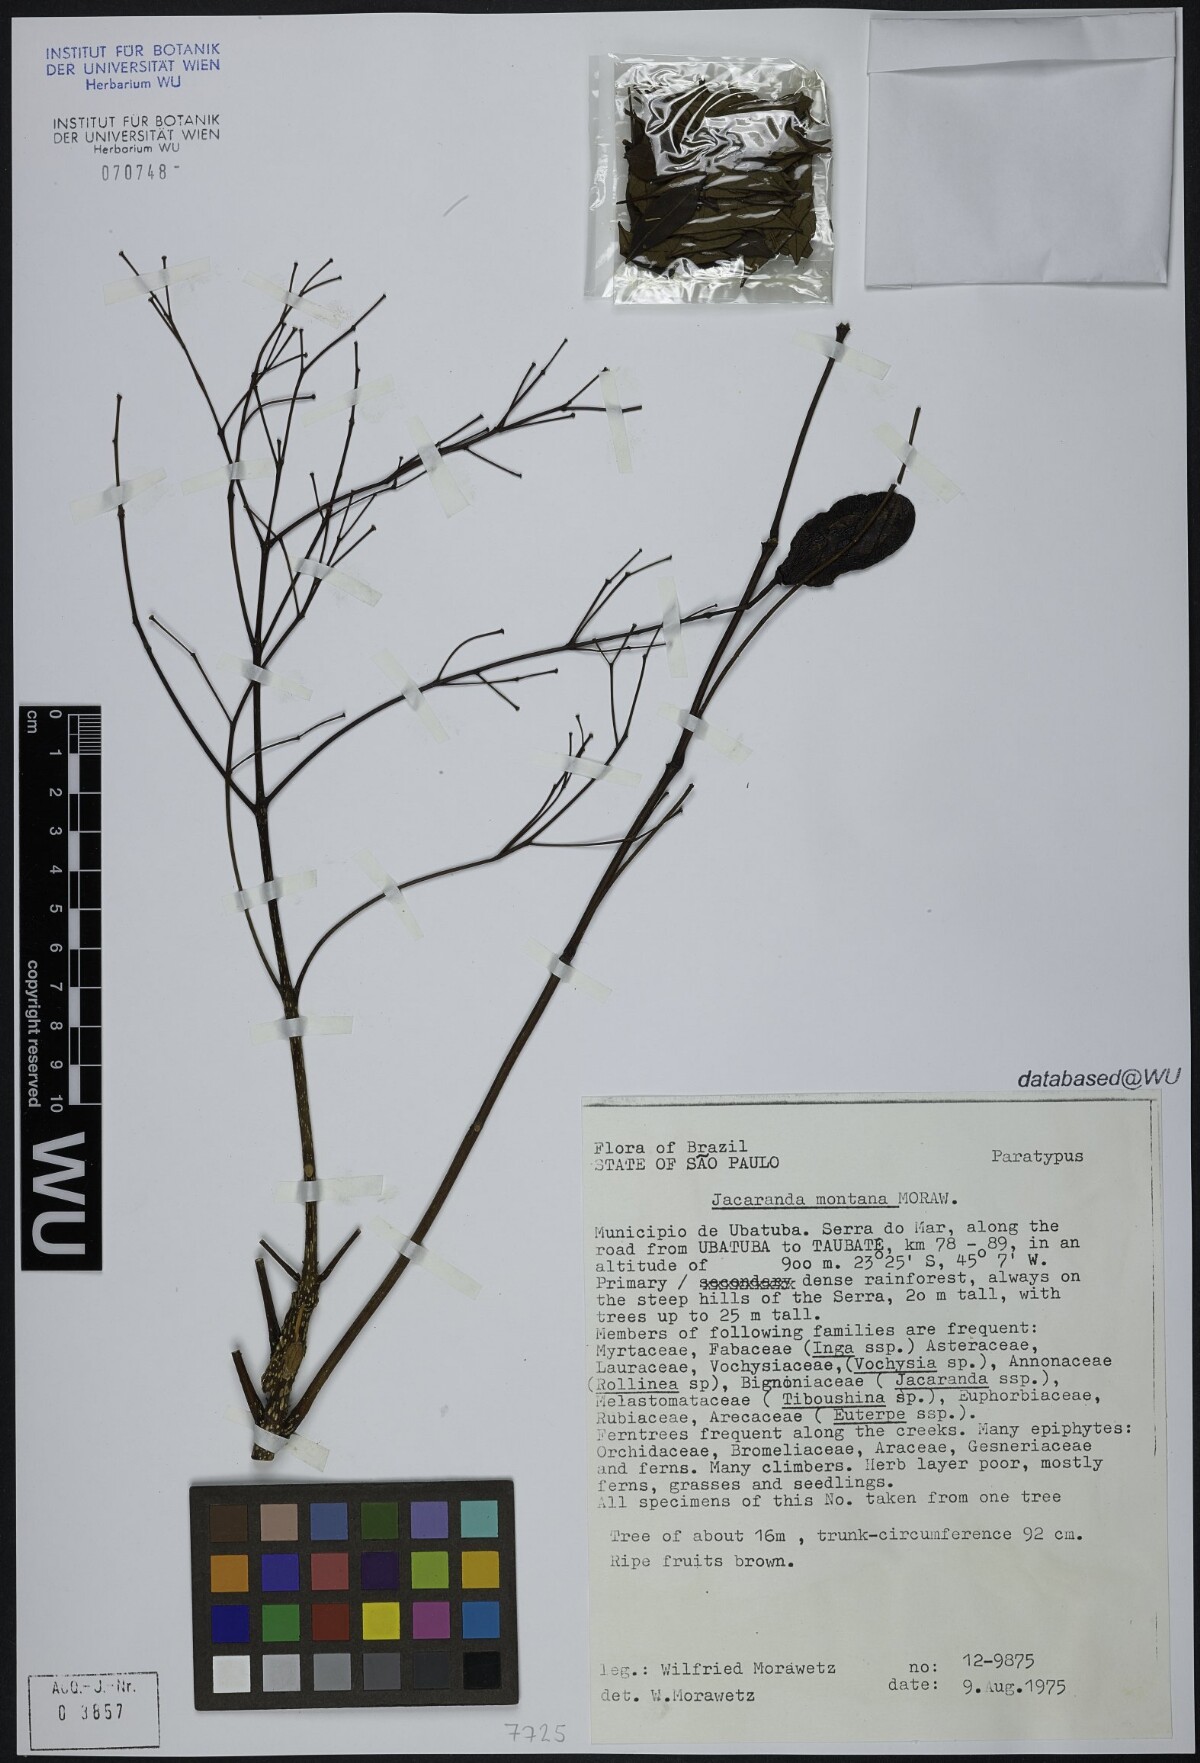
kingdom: Plantae
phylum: Tracheophyta
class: Magnoliopsida
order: Lamiales
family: Bignoniaceae
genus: Jacaranda
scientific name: Jacaranda montana
